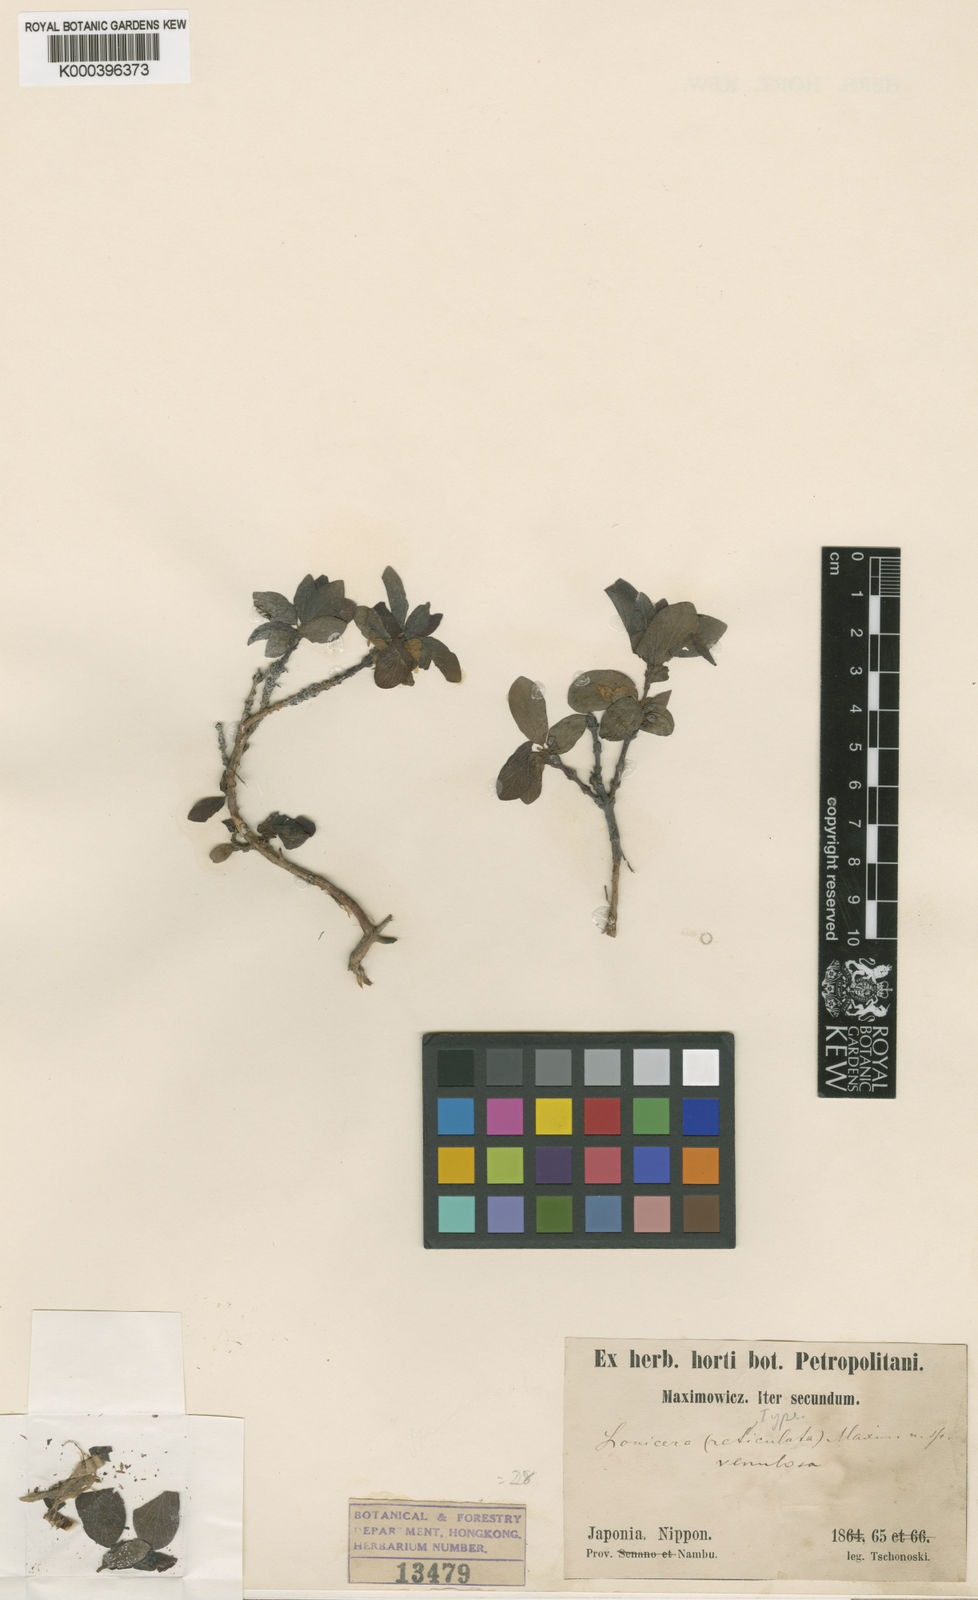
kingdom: Plantae
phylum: Tracheophyta
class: Magnoliopsida
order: Dipsacales
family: Caprifoliaceae
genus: Lonicera
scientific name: Lonicera
